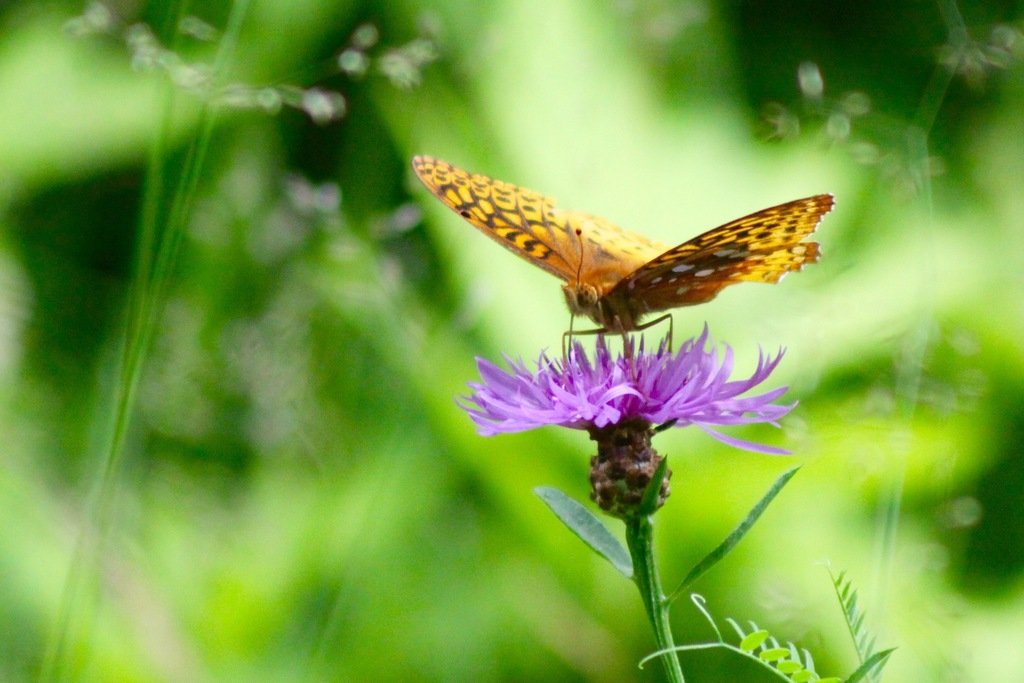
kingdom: Animalia
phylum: Arthropoda
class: Insecta
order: Lepidoptera
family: Nymphalidae
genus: Speyeria
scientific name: Speyeria cybele
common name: Great Spangled Fritillary
